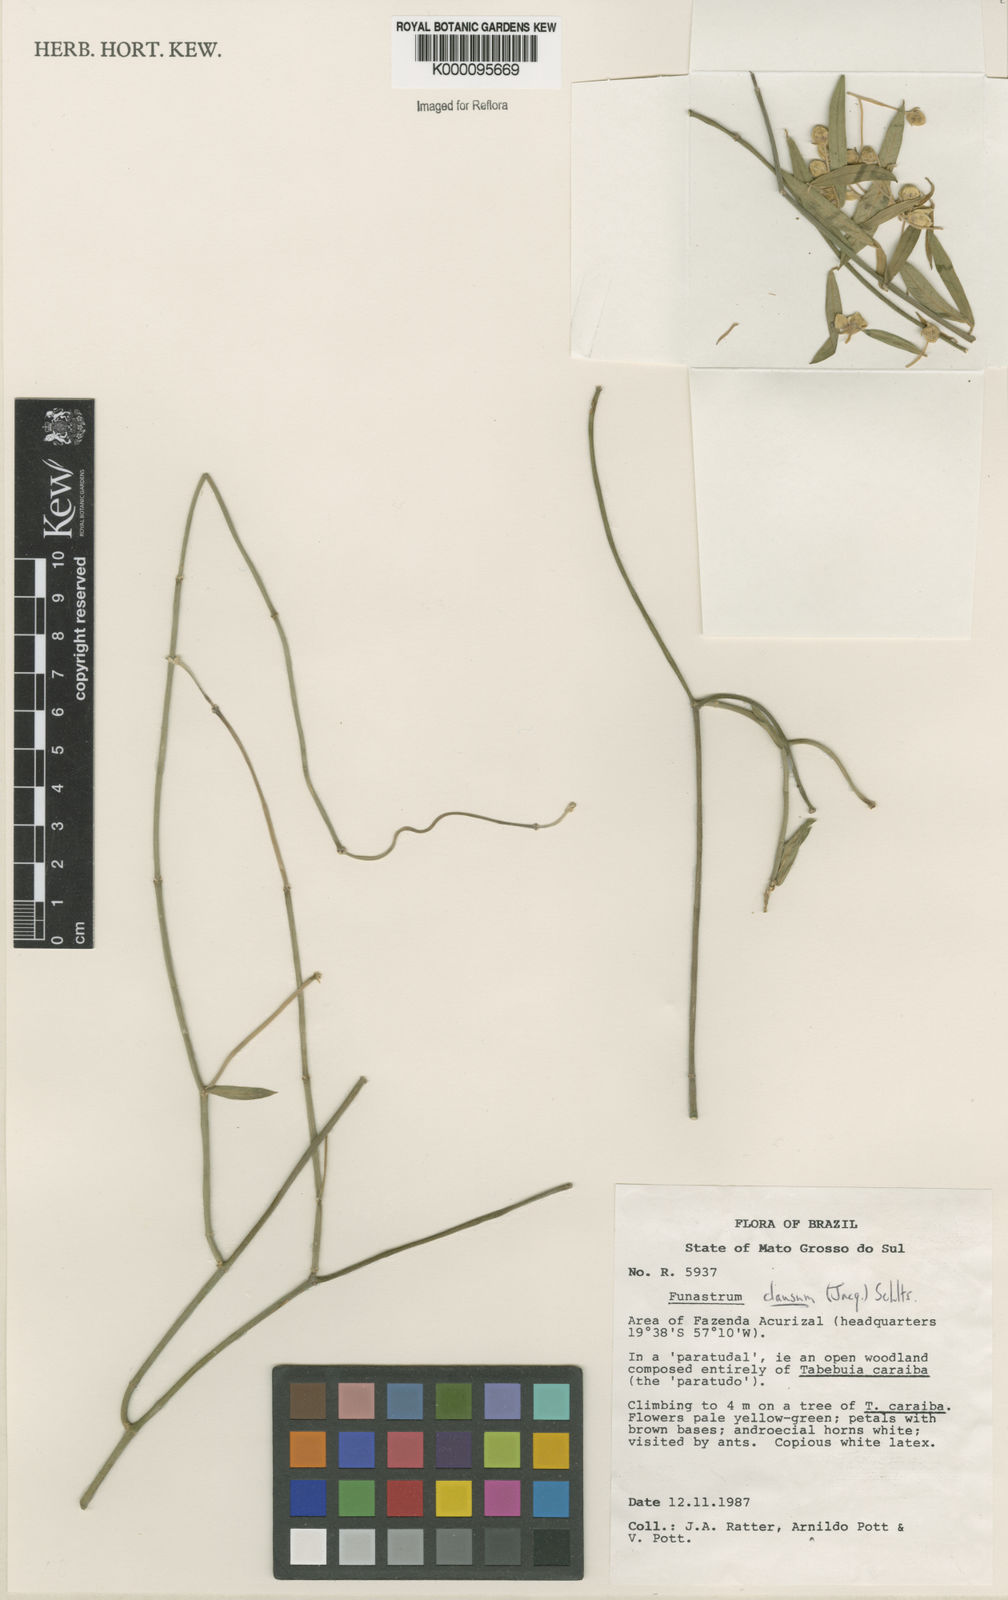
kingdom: Plantae
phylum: Tracheophyta
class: Magnoliopsida
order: Gentianales
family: Apocynaceae
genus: Funastrum
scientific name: Funastrum clausum
